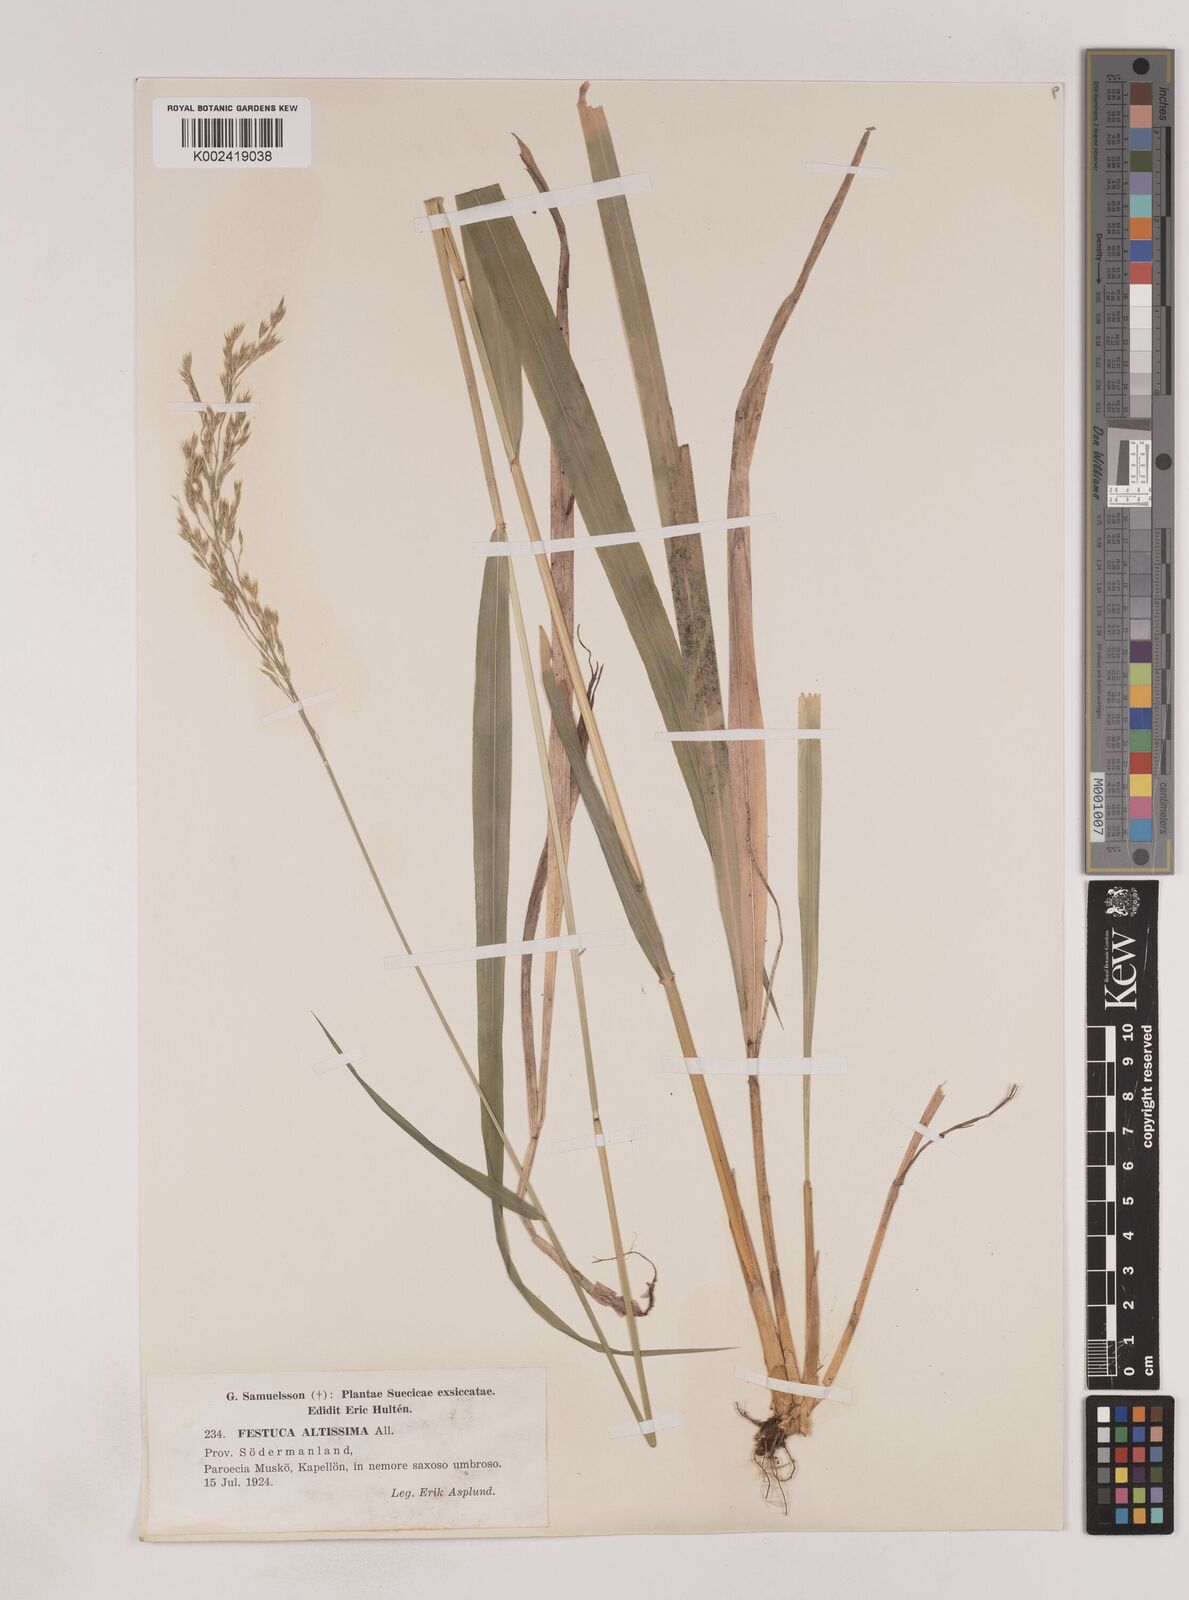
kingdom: Plantae
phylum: Tracheophyta
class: Liliopsida
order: Poales
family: Poaceae
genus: Festuca
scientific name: Festuca drymeja
